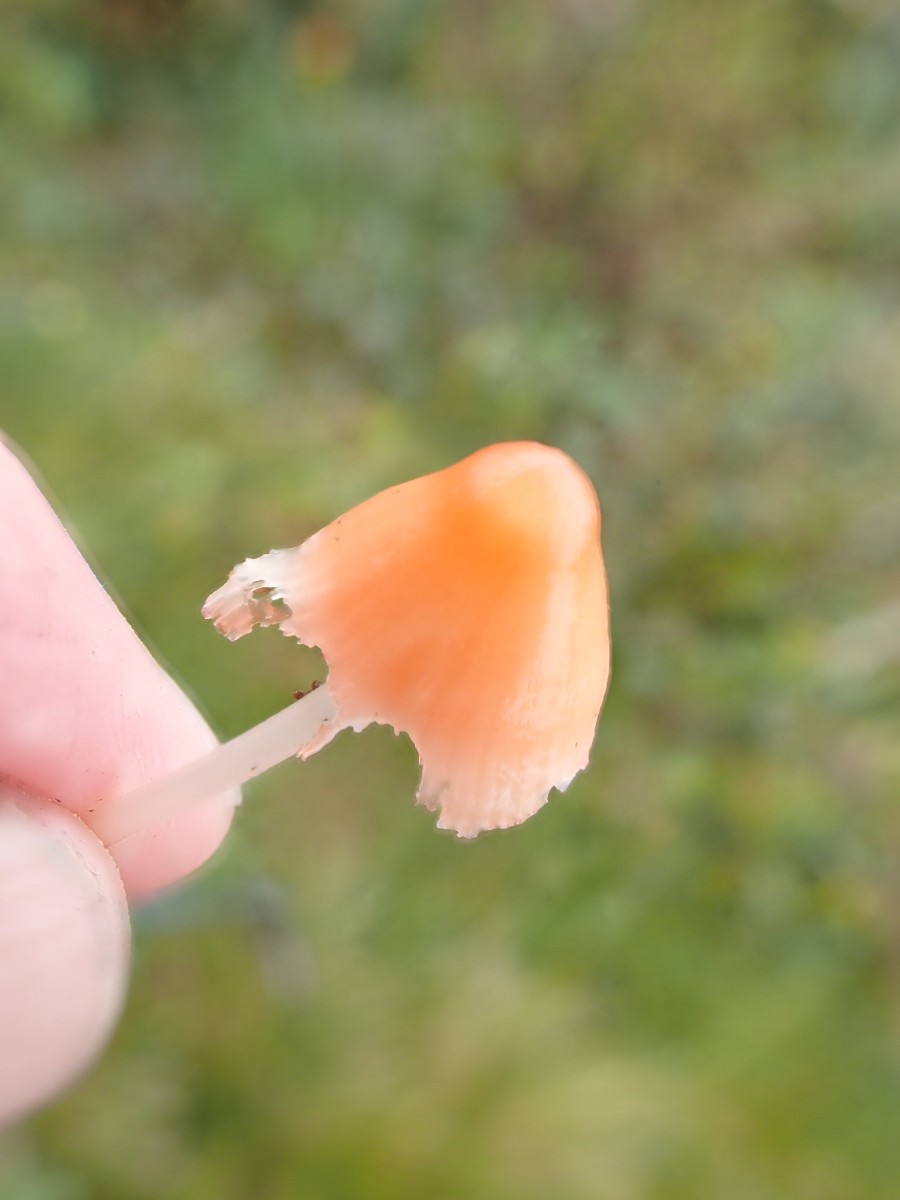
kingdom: Fungi
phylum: Basidiomycota
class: Agaricomycetes
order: Agaricales
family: Mycenaceae
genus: Atheniella
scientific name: Atheniella adonis
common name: rønnerød huesvamp
